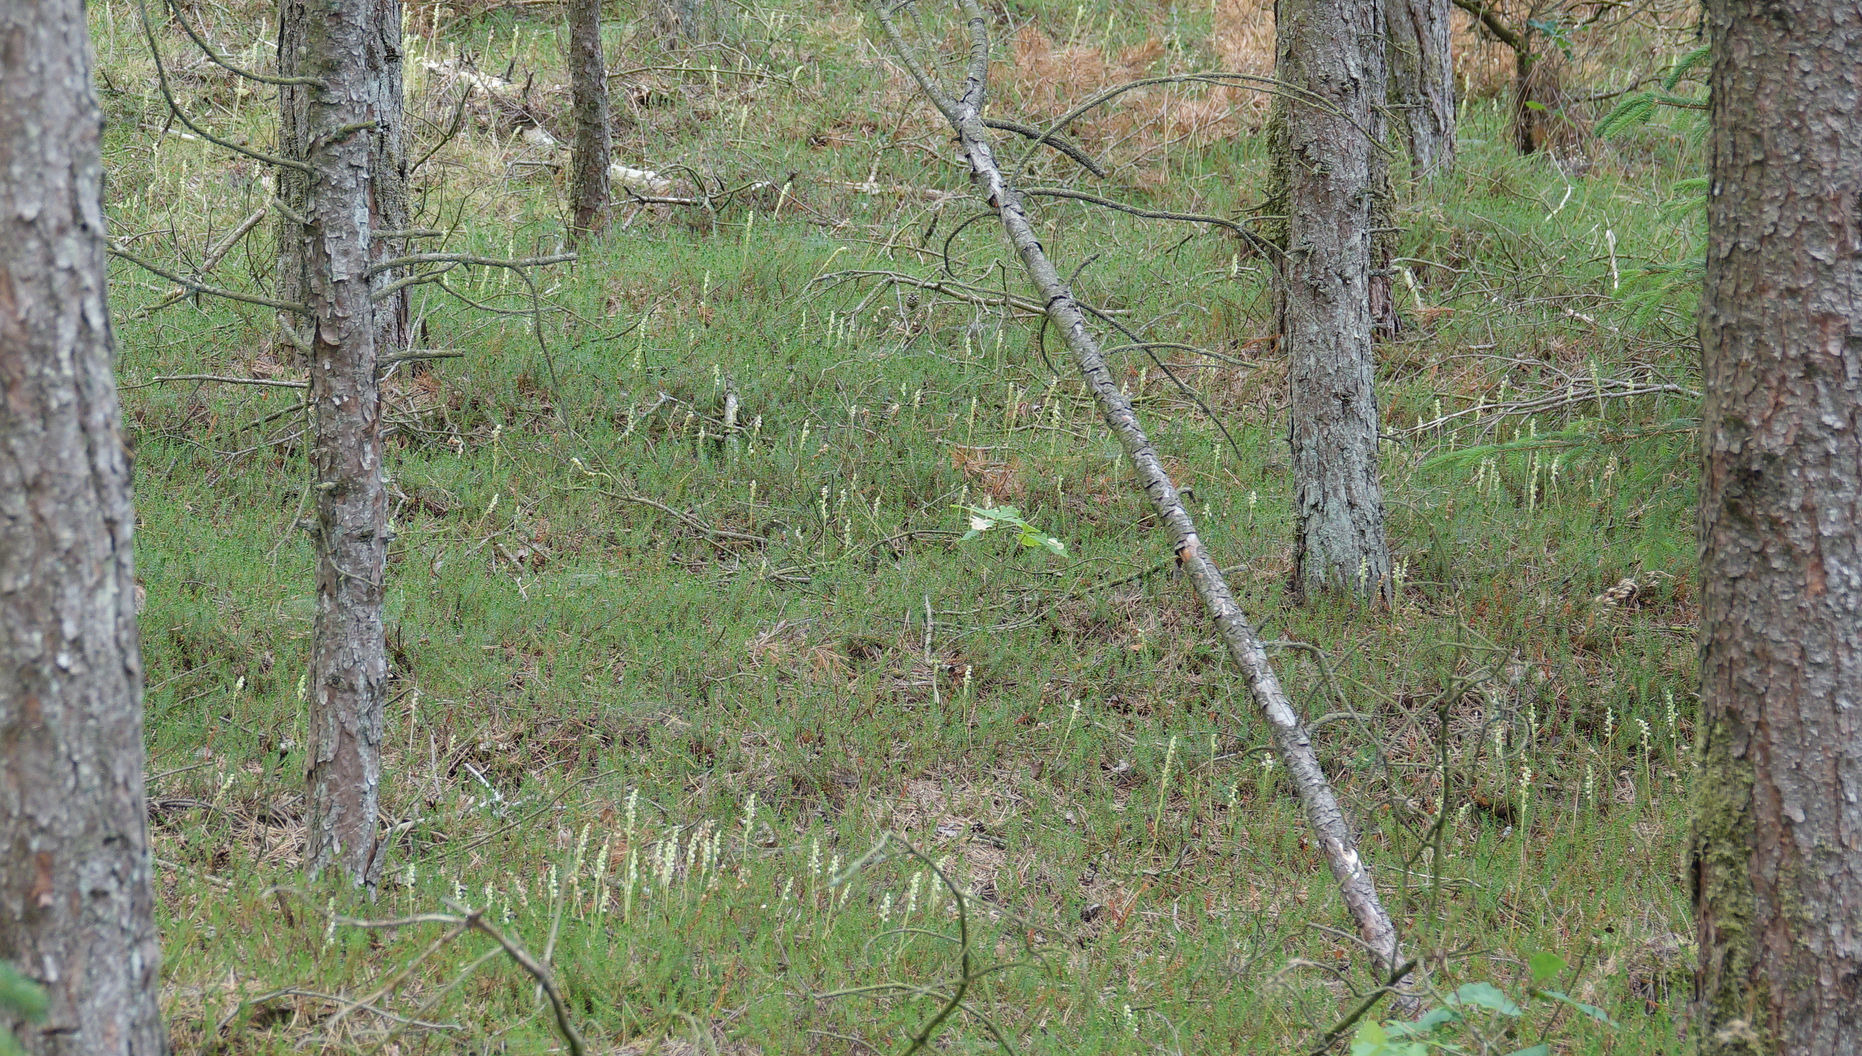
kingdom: Plantae
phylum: Tracheophyta
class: Liliopsida
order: Asparagales
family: Orchidaceae
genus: Goodyera
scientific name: Goodyera repens
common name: Knærod
